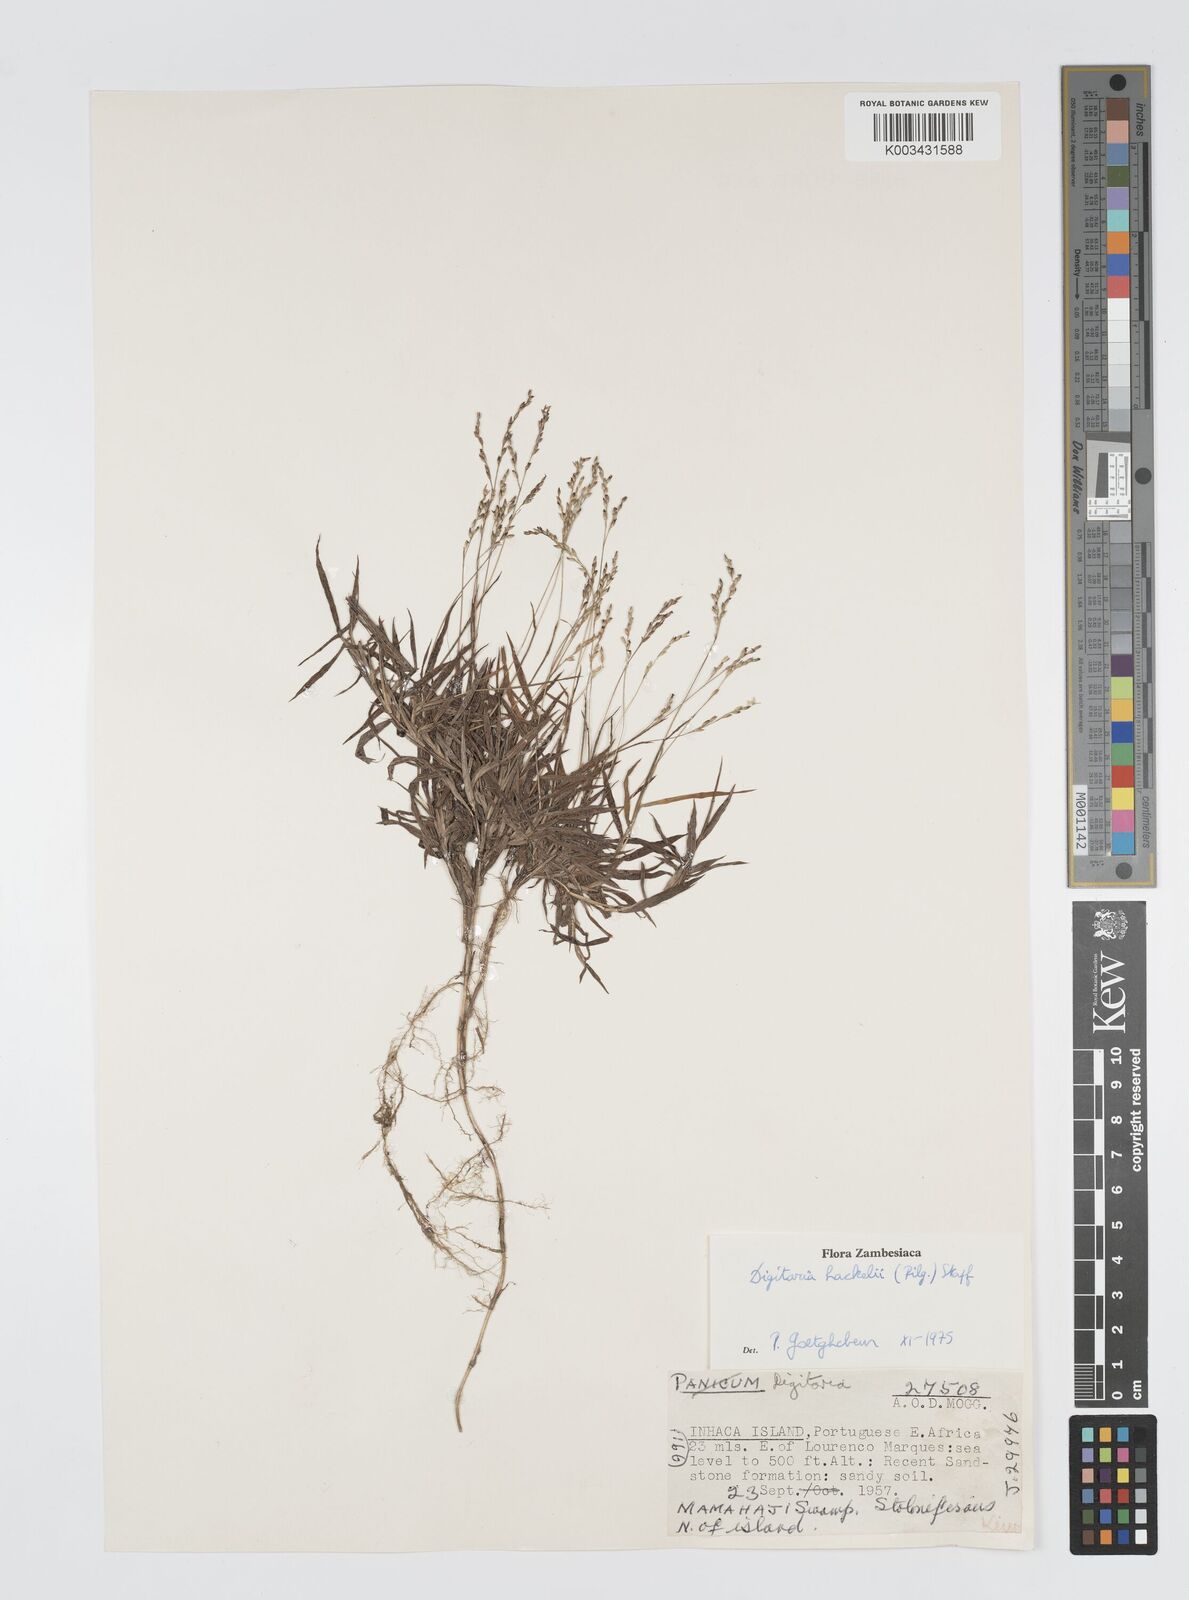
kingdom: Plantae
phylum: Tracheophyta
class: Liliopsida
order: Poales
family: Poaceae
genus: Digitaria
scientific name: Digitaria abyssinica
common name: African couchgrass
